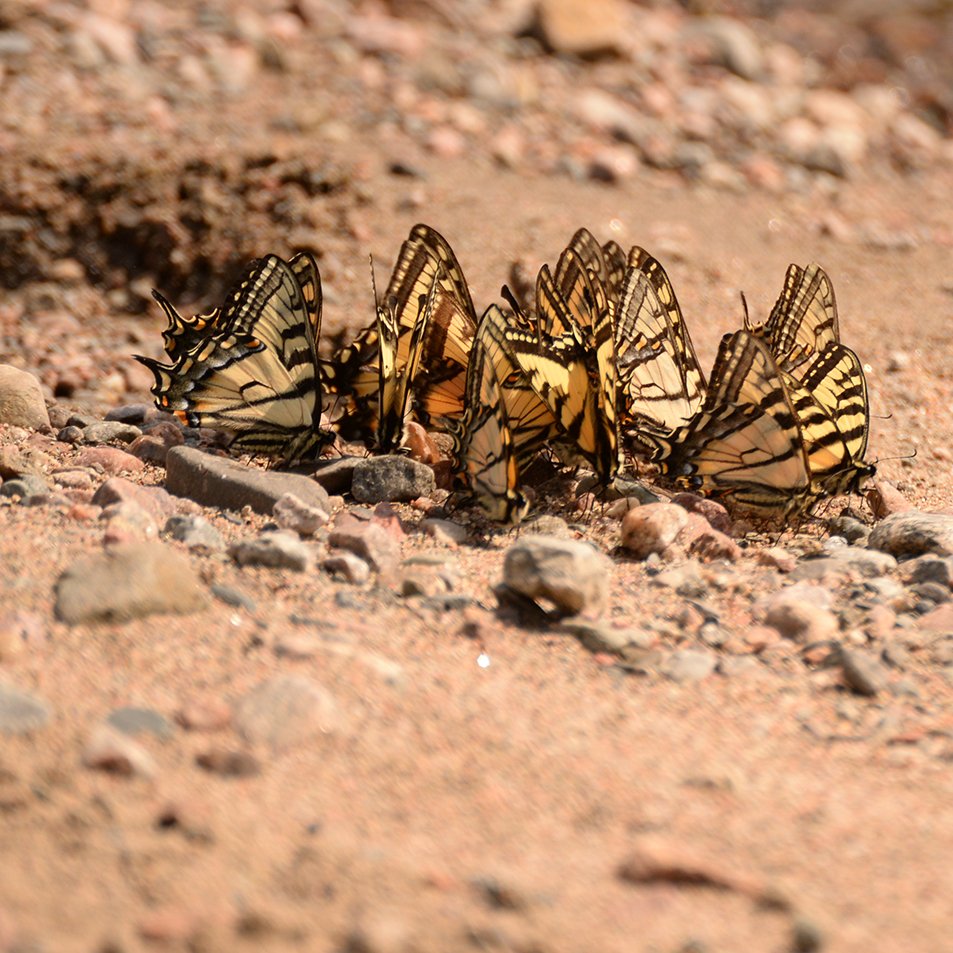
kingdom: Animalia
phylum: Arthropoda
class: Insecta
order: Lepidoptera
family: Papilionidae
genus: Pterourus
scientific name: Pterourus canadensis
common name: Canadian Tiger Swallowtail
